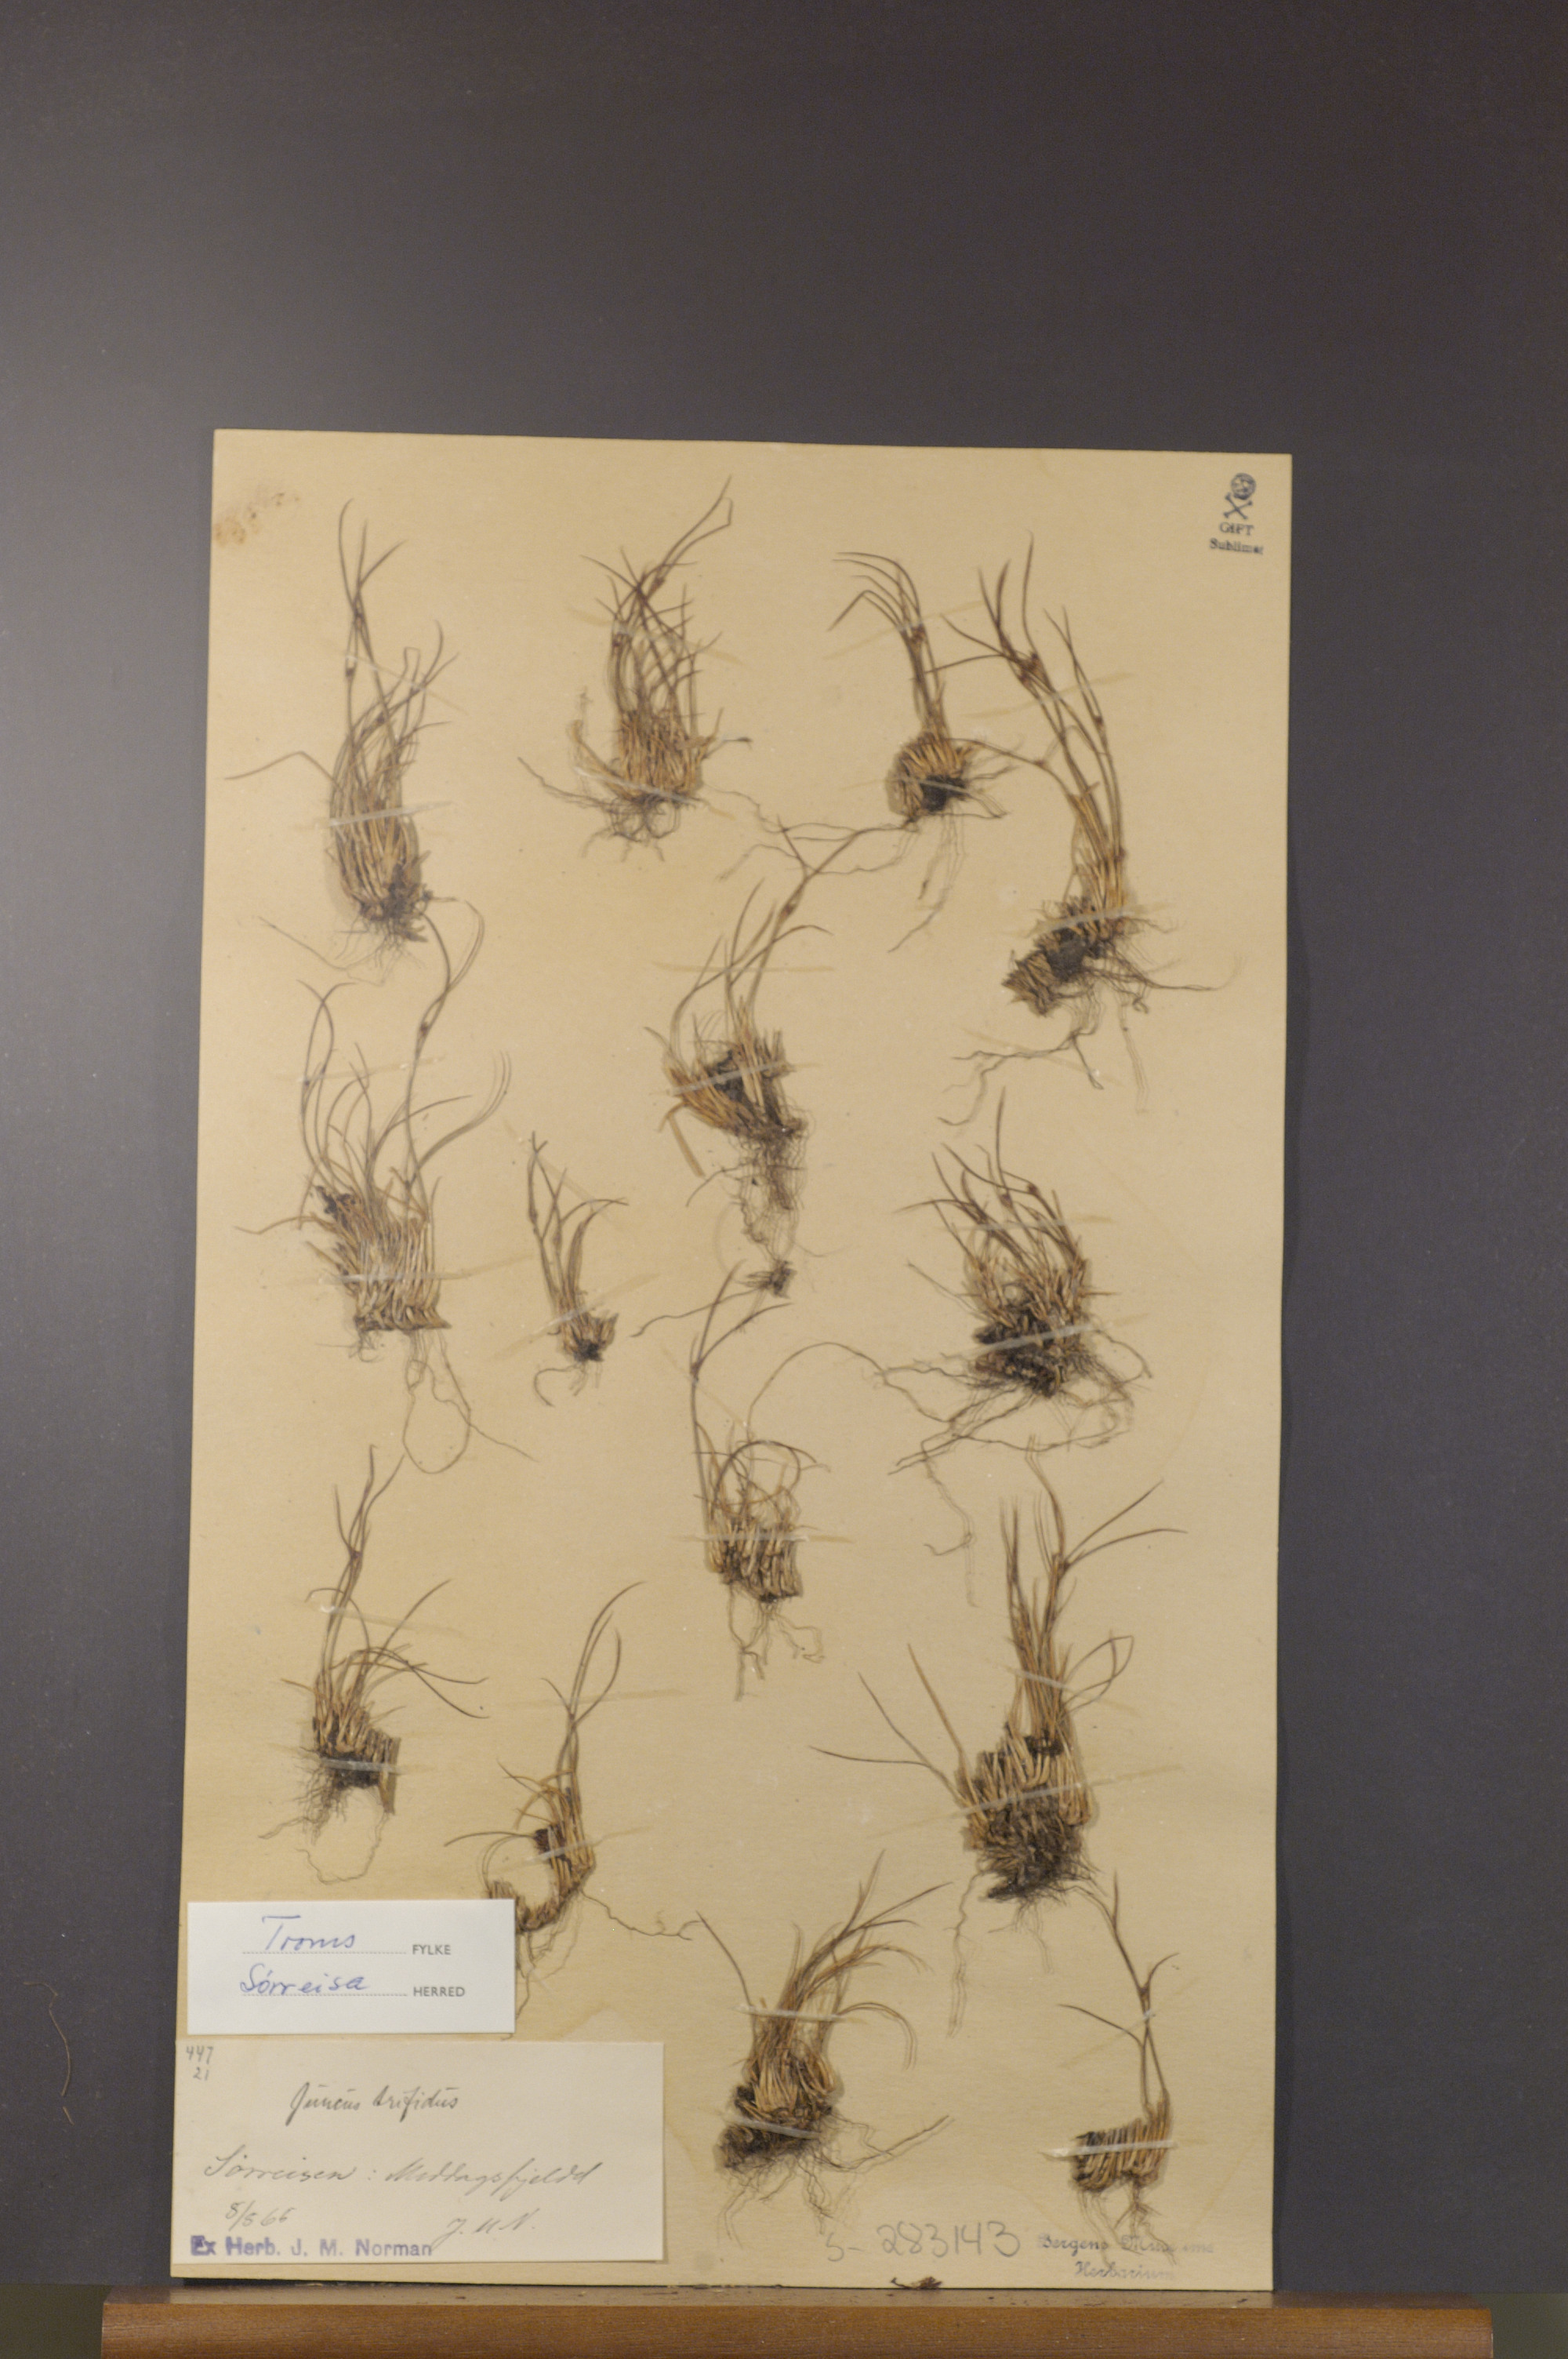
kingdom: Plantae
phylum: Tracheophyta
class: Liliopsida
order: Poales
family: Juncaceae
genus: Oreojuncus
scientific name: Oreojuncus trifidus
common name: Highland rush
